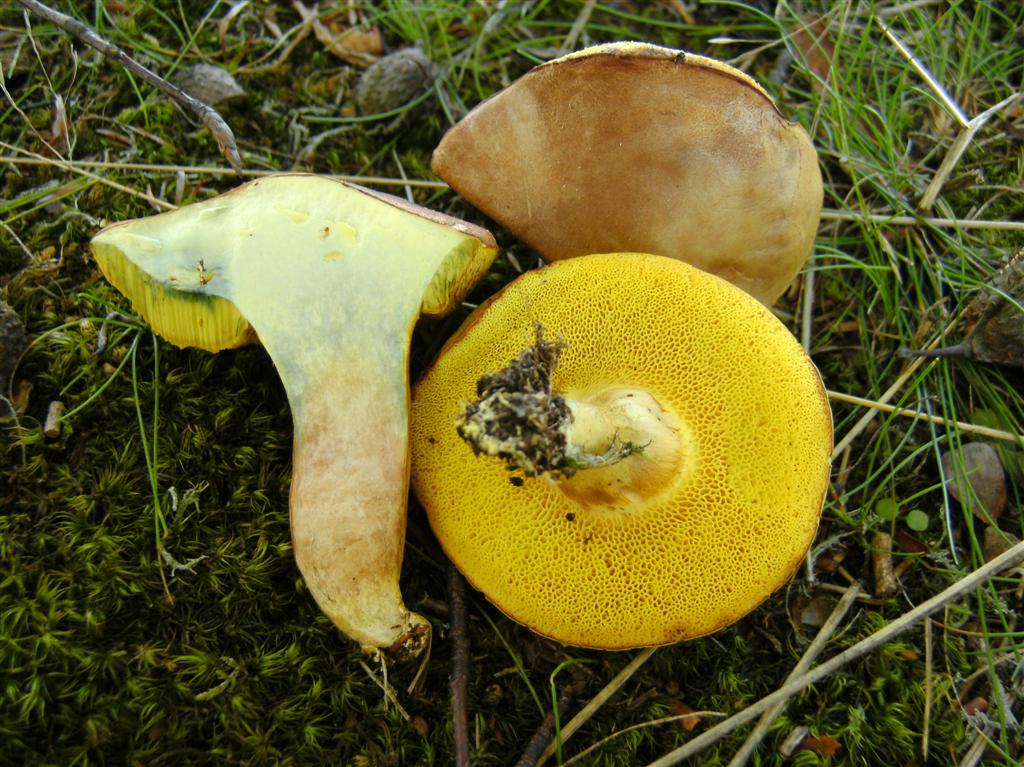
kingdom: Fungi
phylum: Basidiomycota
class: Agaricomycetes
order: Boletales
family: Boletaceae
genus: Xerocomus
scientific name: Xerocomus subtomentosus
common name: filtet rørhat
